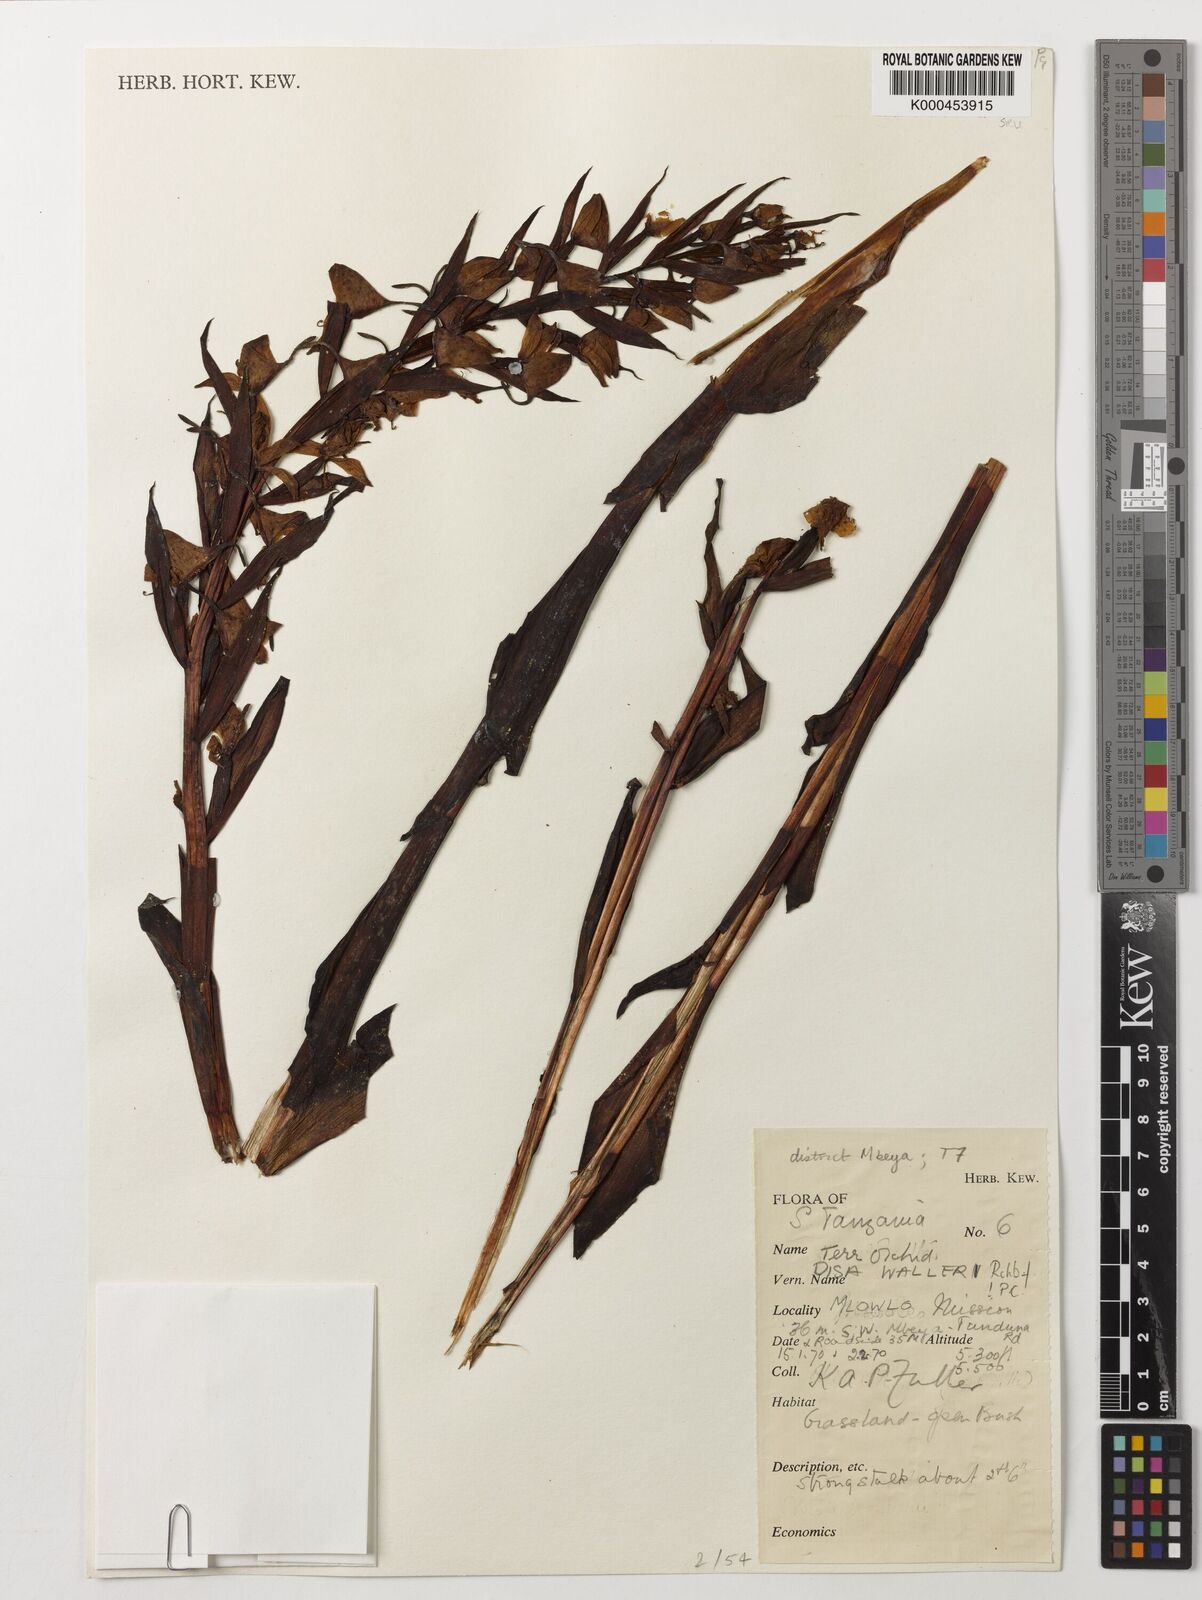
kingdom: Plantae
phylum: Tracheophyta
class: Liliopsida
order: Asparagales
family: Orchidaceae
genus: Disa
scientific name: Disa walleri
